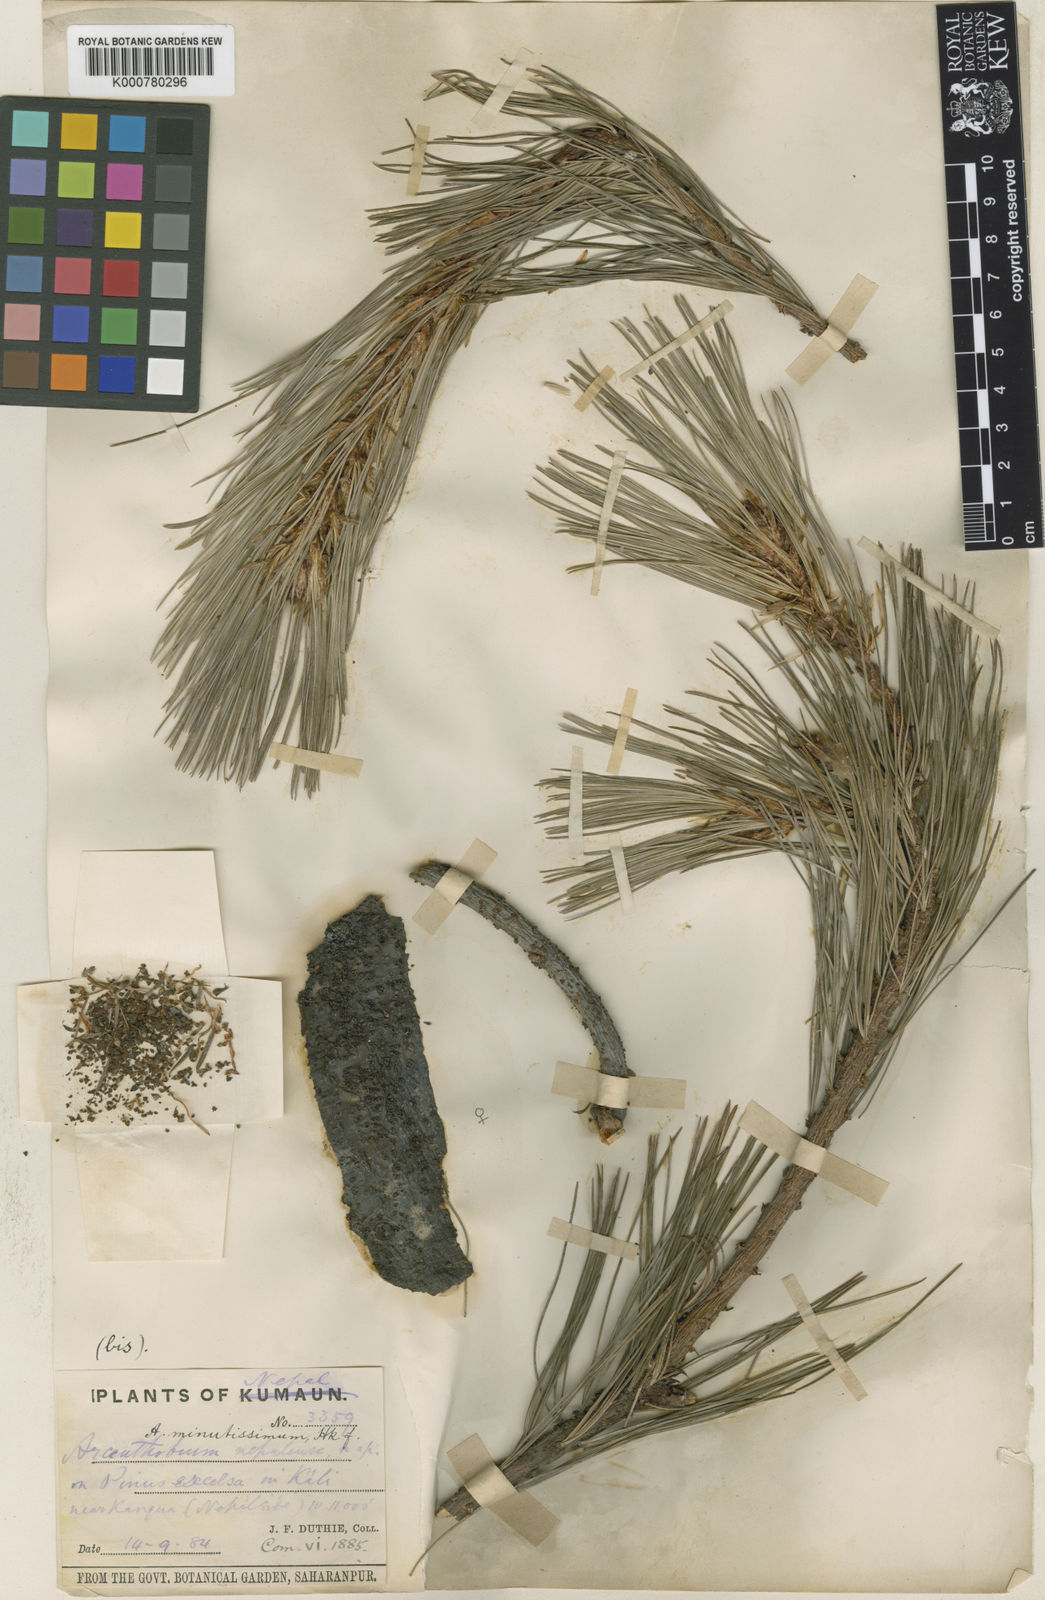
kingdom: Plantae
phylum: Tracheophyta
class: Magnoliopsida
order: Santalales
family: Viscaceae
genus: Arceuthobium
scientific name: Arceuthobium minutissimum
